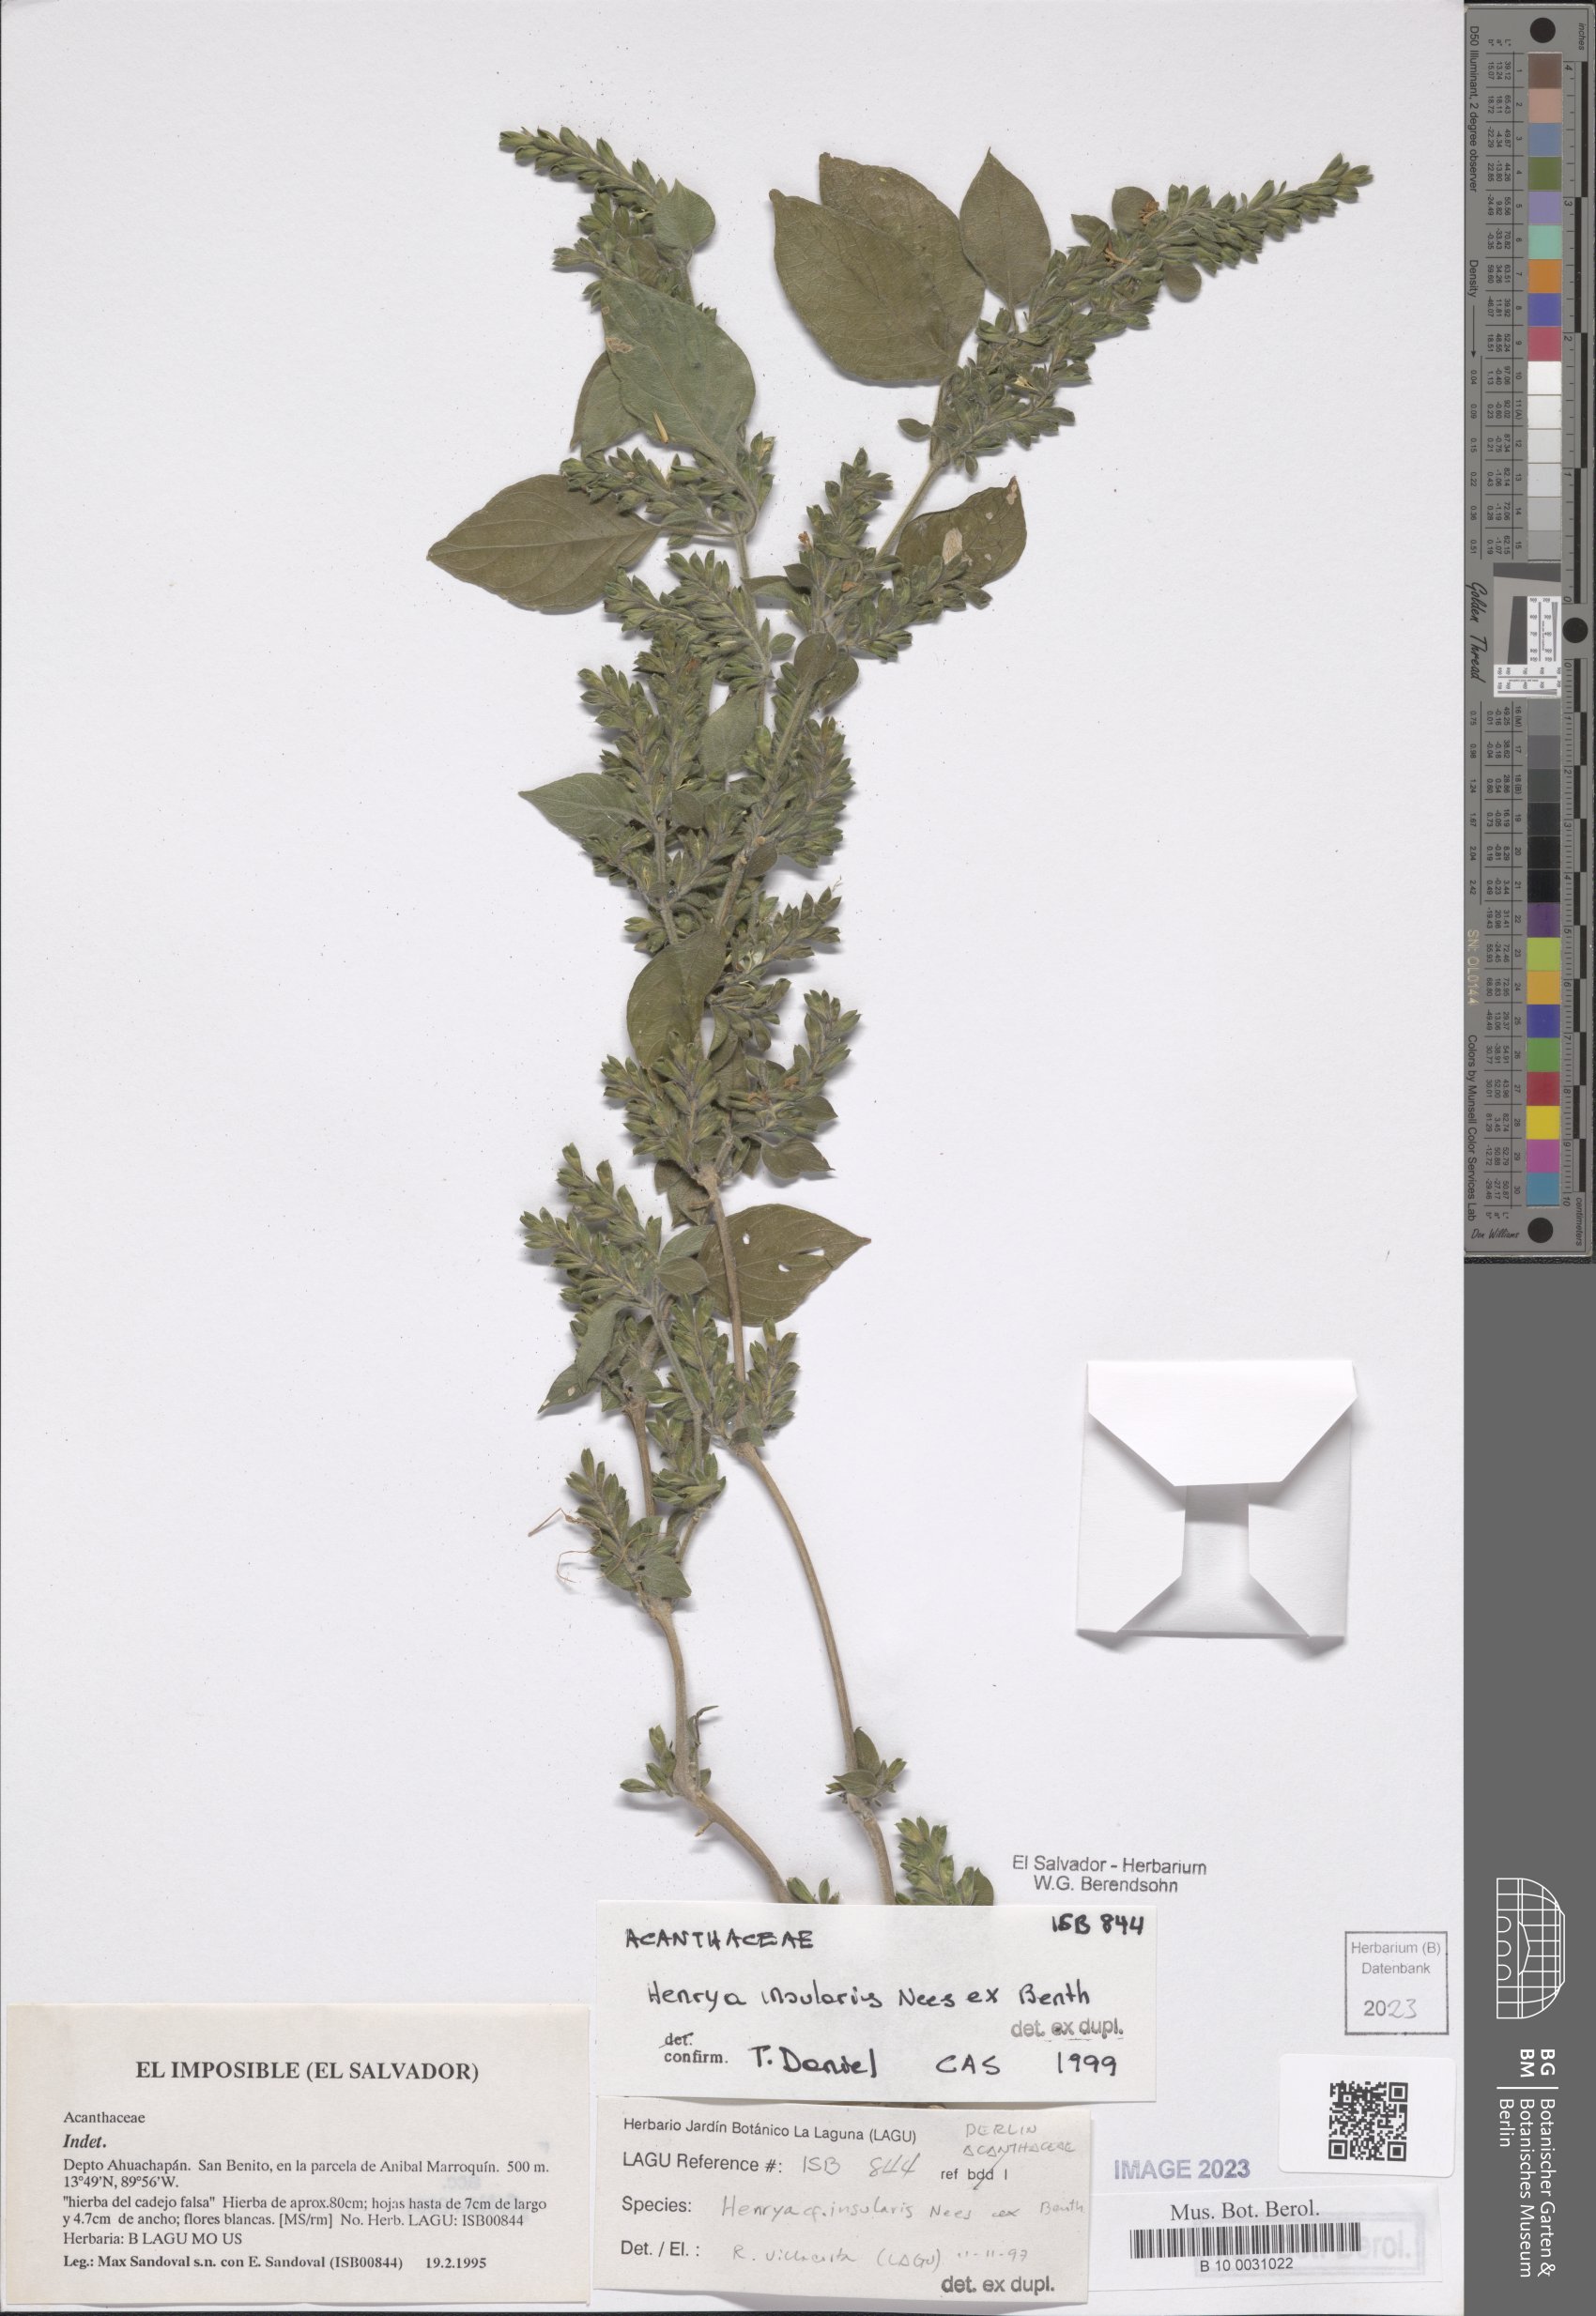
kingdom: Plantae
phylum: Tracheophyta
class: Magnoliopsida
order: Lamiales
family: Acanthaceae
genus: Henrya
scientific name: Henrya insularis
